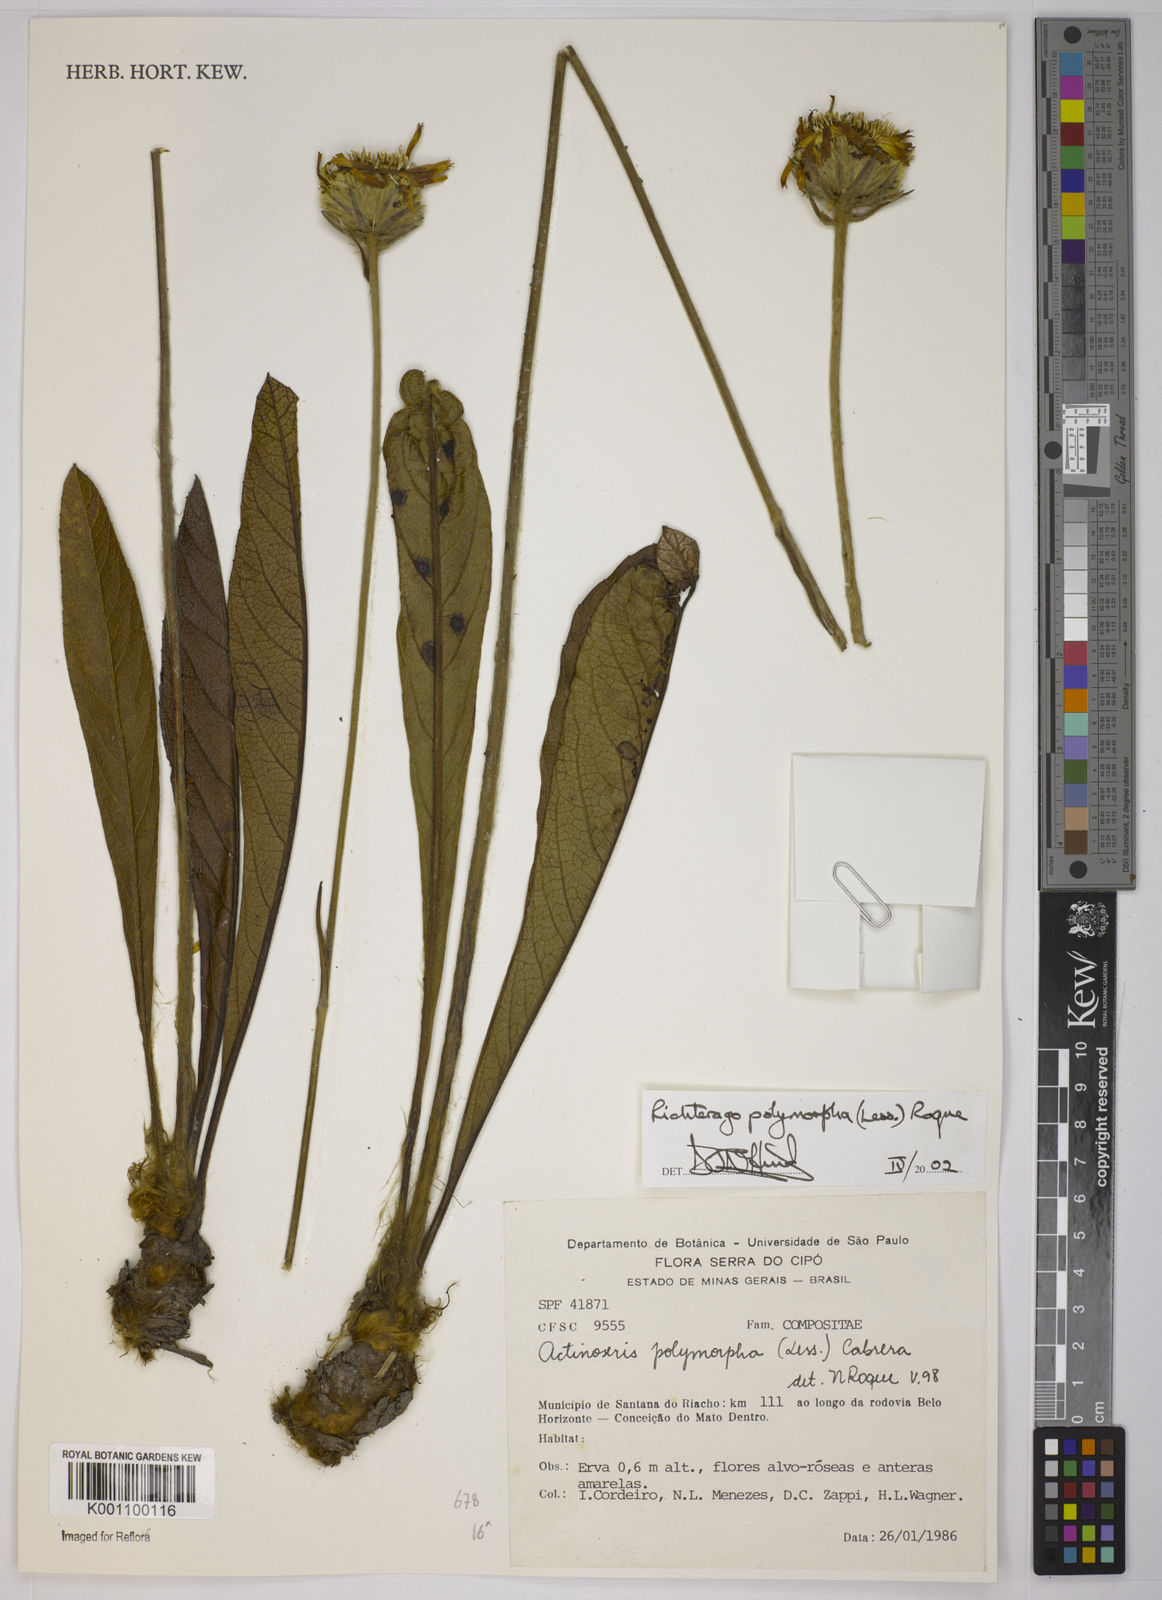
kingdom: Plantae
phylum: Tracheophyta
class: Magnoliopsida
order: Asterales
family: Asteraceae
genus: Richterago
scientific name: Richterago polymorpha
